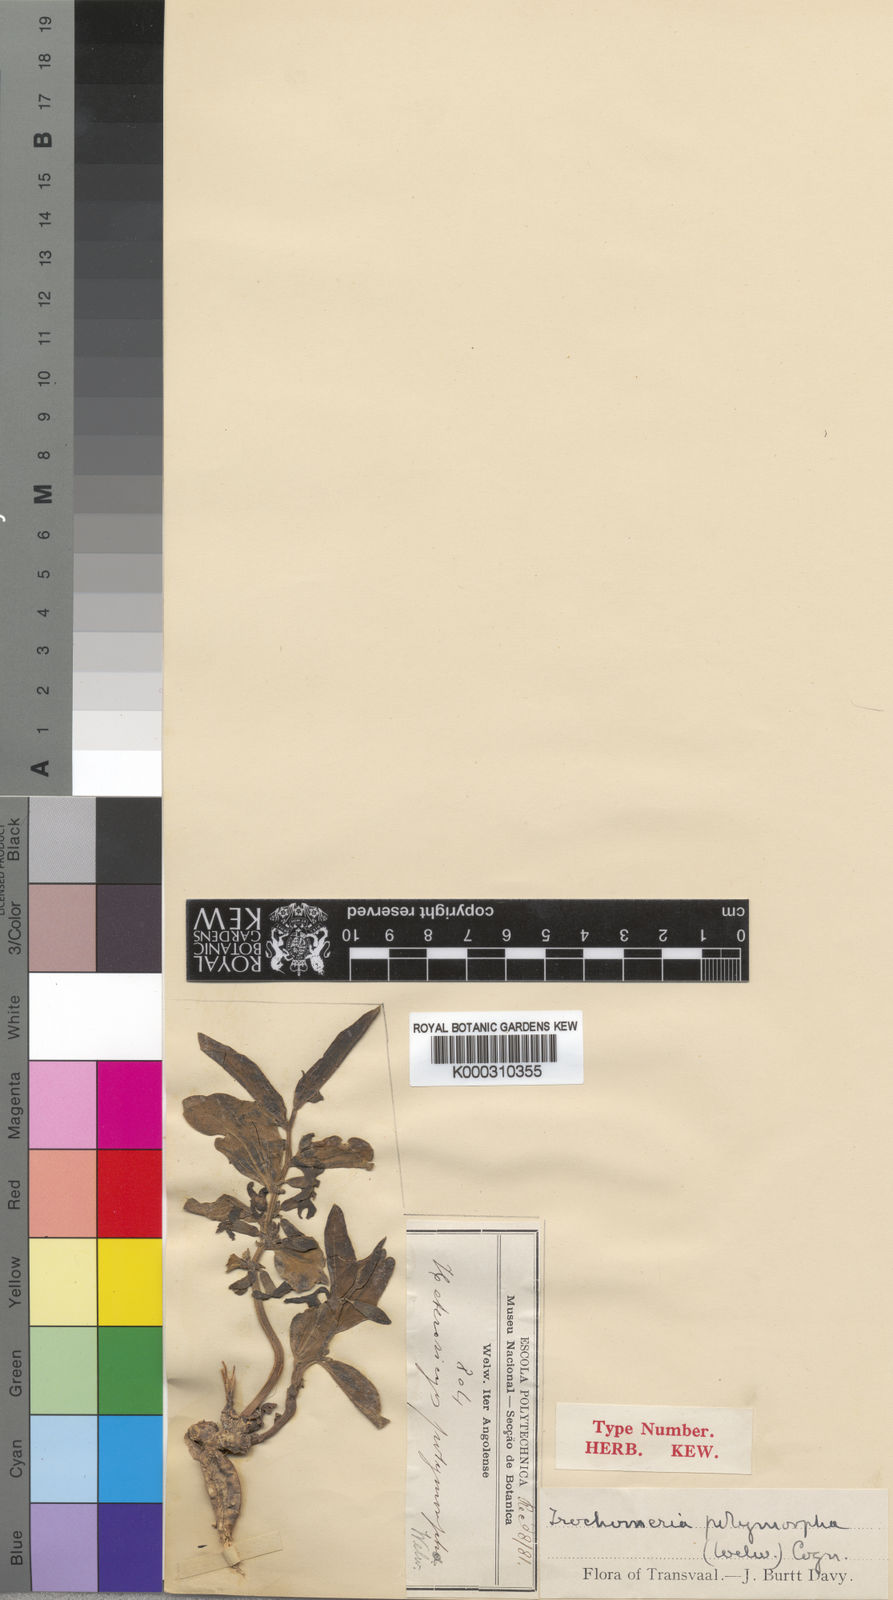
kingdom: Plantae
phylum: Tracheophyta
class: Magnoliopsida
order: Cucurbitales
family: Cucurbitaceae
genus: Trochomeria
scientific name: Trochomeria polymorpha
